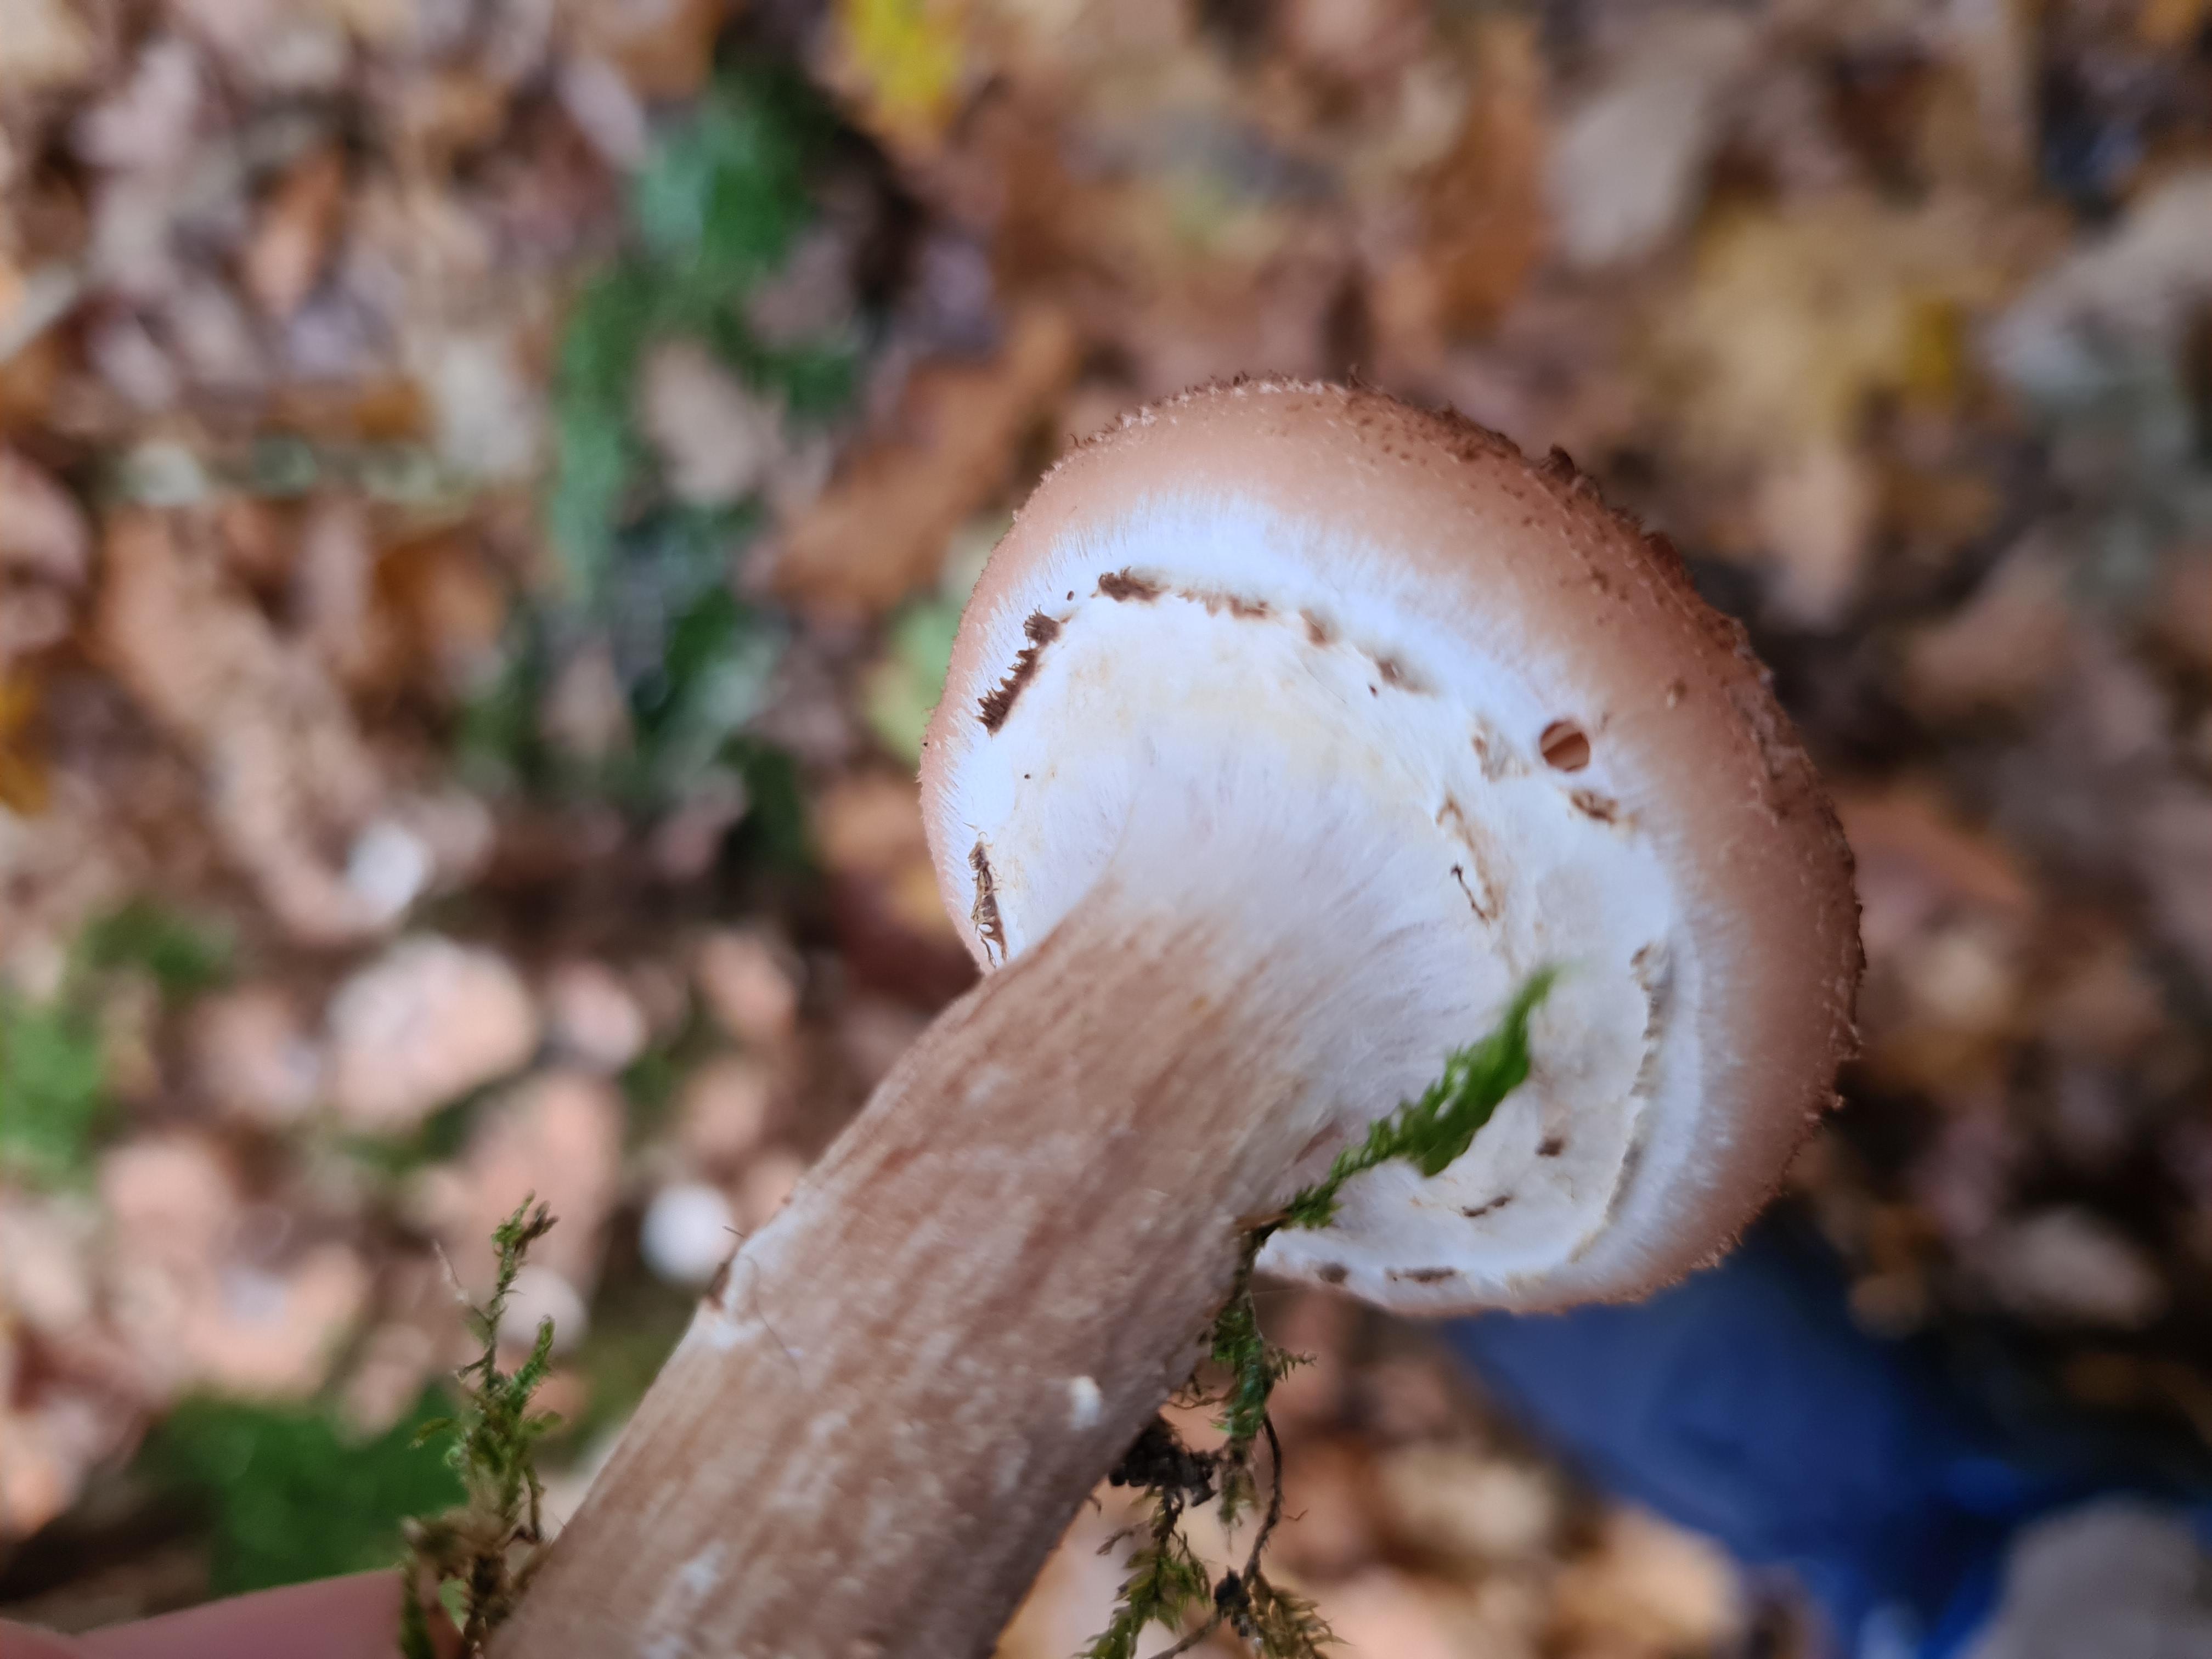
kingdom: Fungi
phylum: Basidiomycota
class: Agaricomycetes
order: Agaricales
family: Physalacriaceae
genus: Armillaria
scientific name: Armillaria ostoyae
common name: mørk honningsvamp
